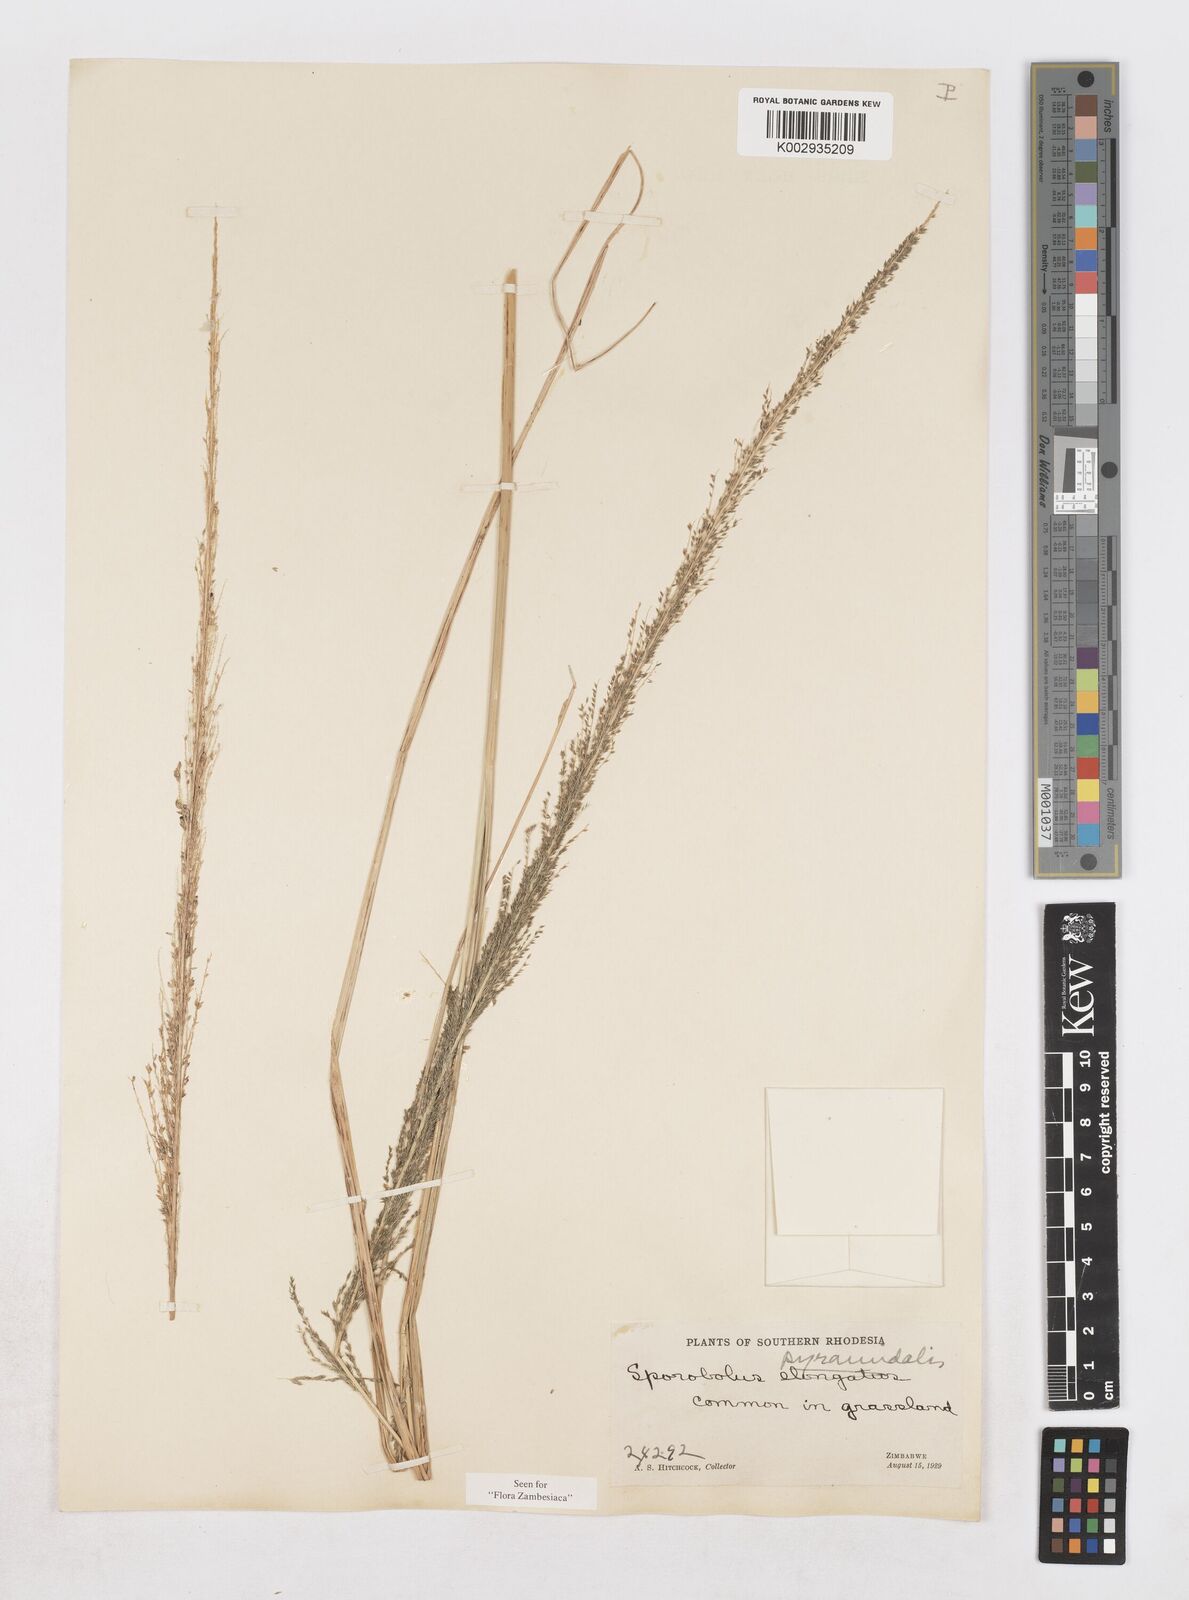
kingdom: Plantae
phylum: Tracheophyta
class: Liliopsida
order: Poales
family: Poaceae
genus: Sporobolus
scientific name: Sporobolus pyramidalis
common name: West indian dropseed
